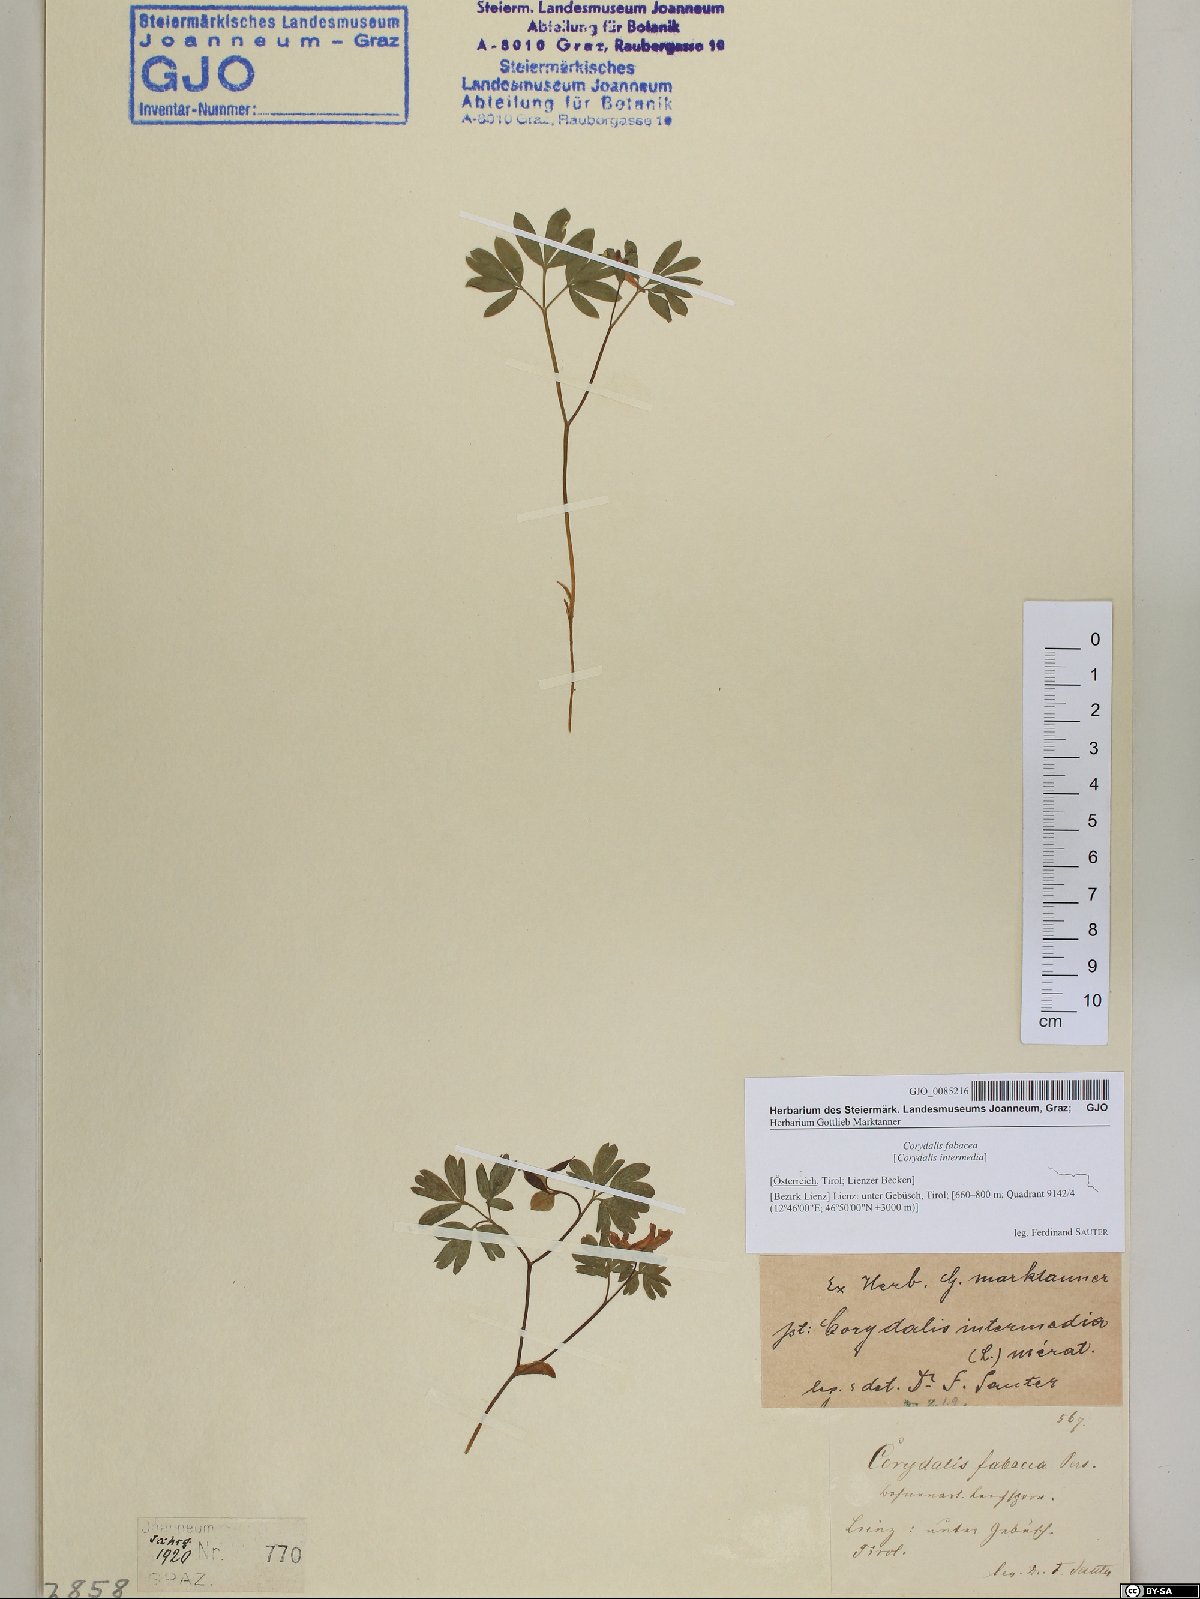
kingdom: Plantae
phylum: Tracheophyta
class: Magnoliopsida
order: Ranunculales
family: Papaveraceae
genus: Corydalis
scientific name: Corydalis intermedia
